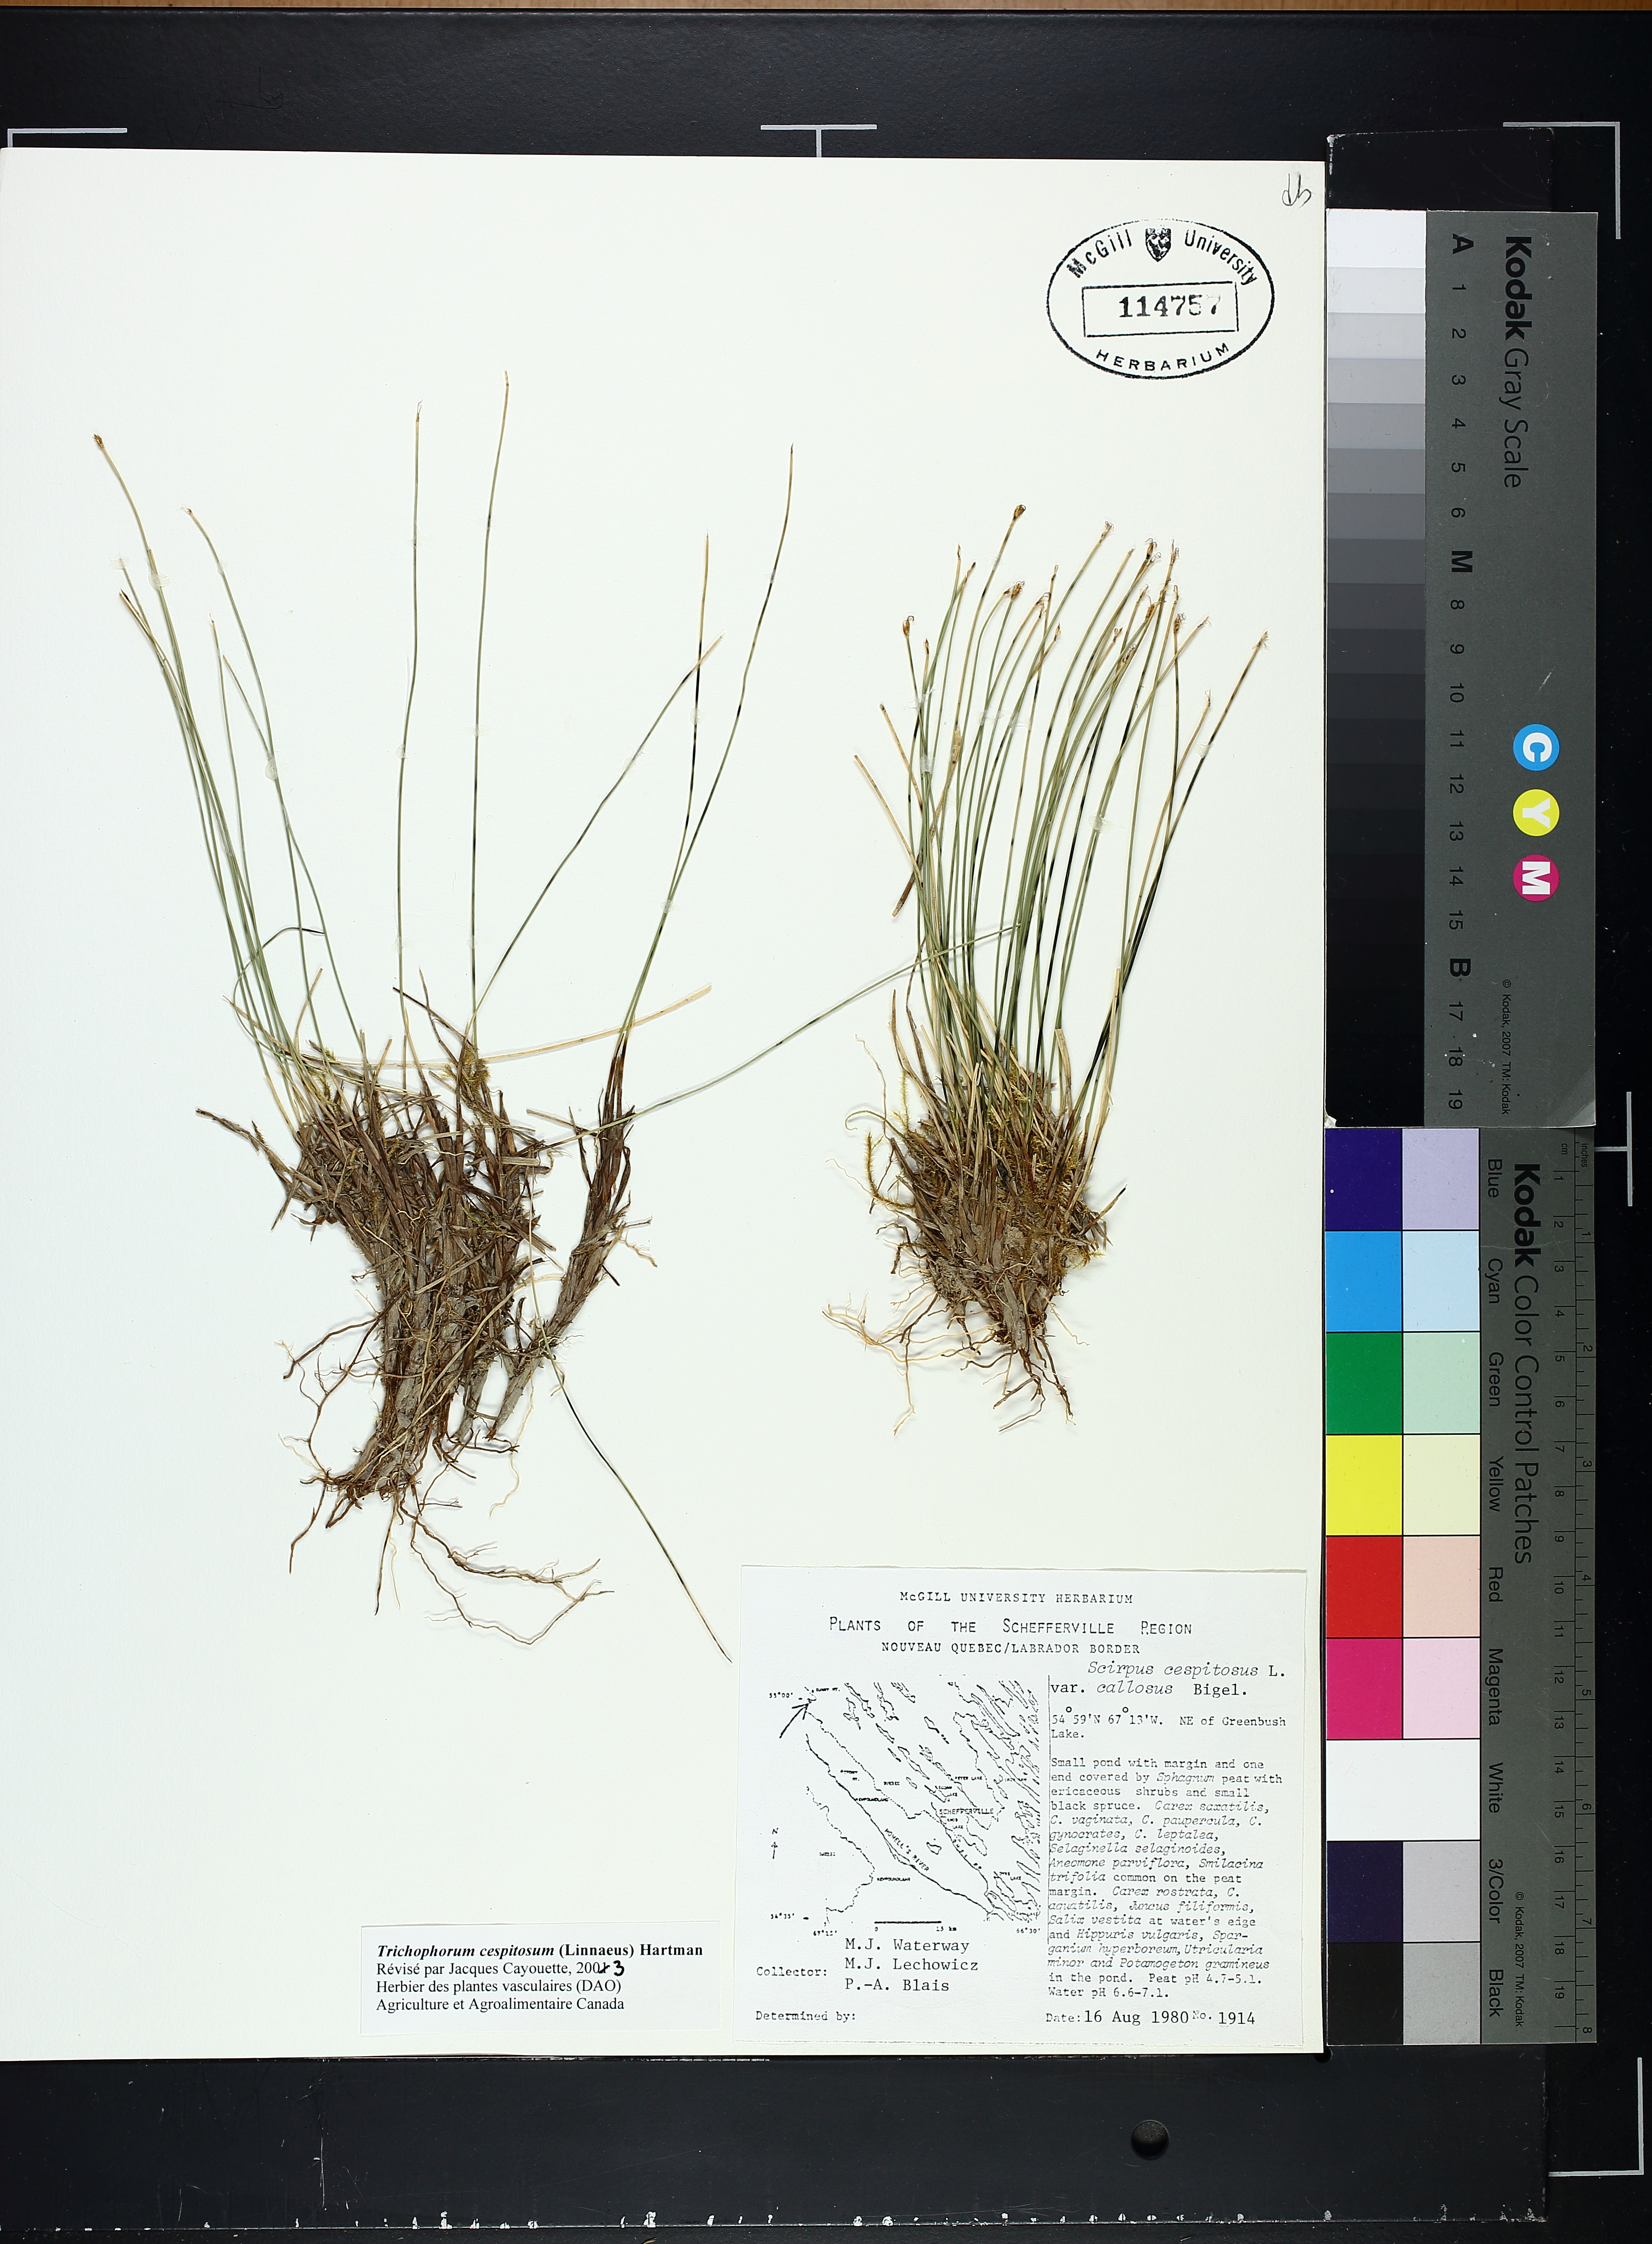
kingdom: Plantae
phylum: Tracheophyta
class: Liliopsida
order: Poales
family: Cyperaceae
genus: Trichophorum
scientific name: Trichophorum cespitosum
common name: Cespitose bulrush
